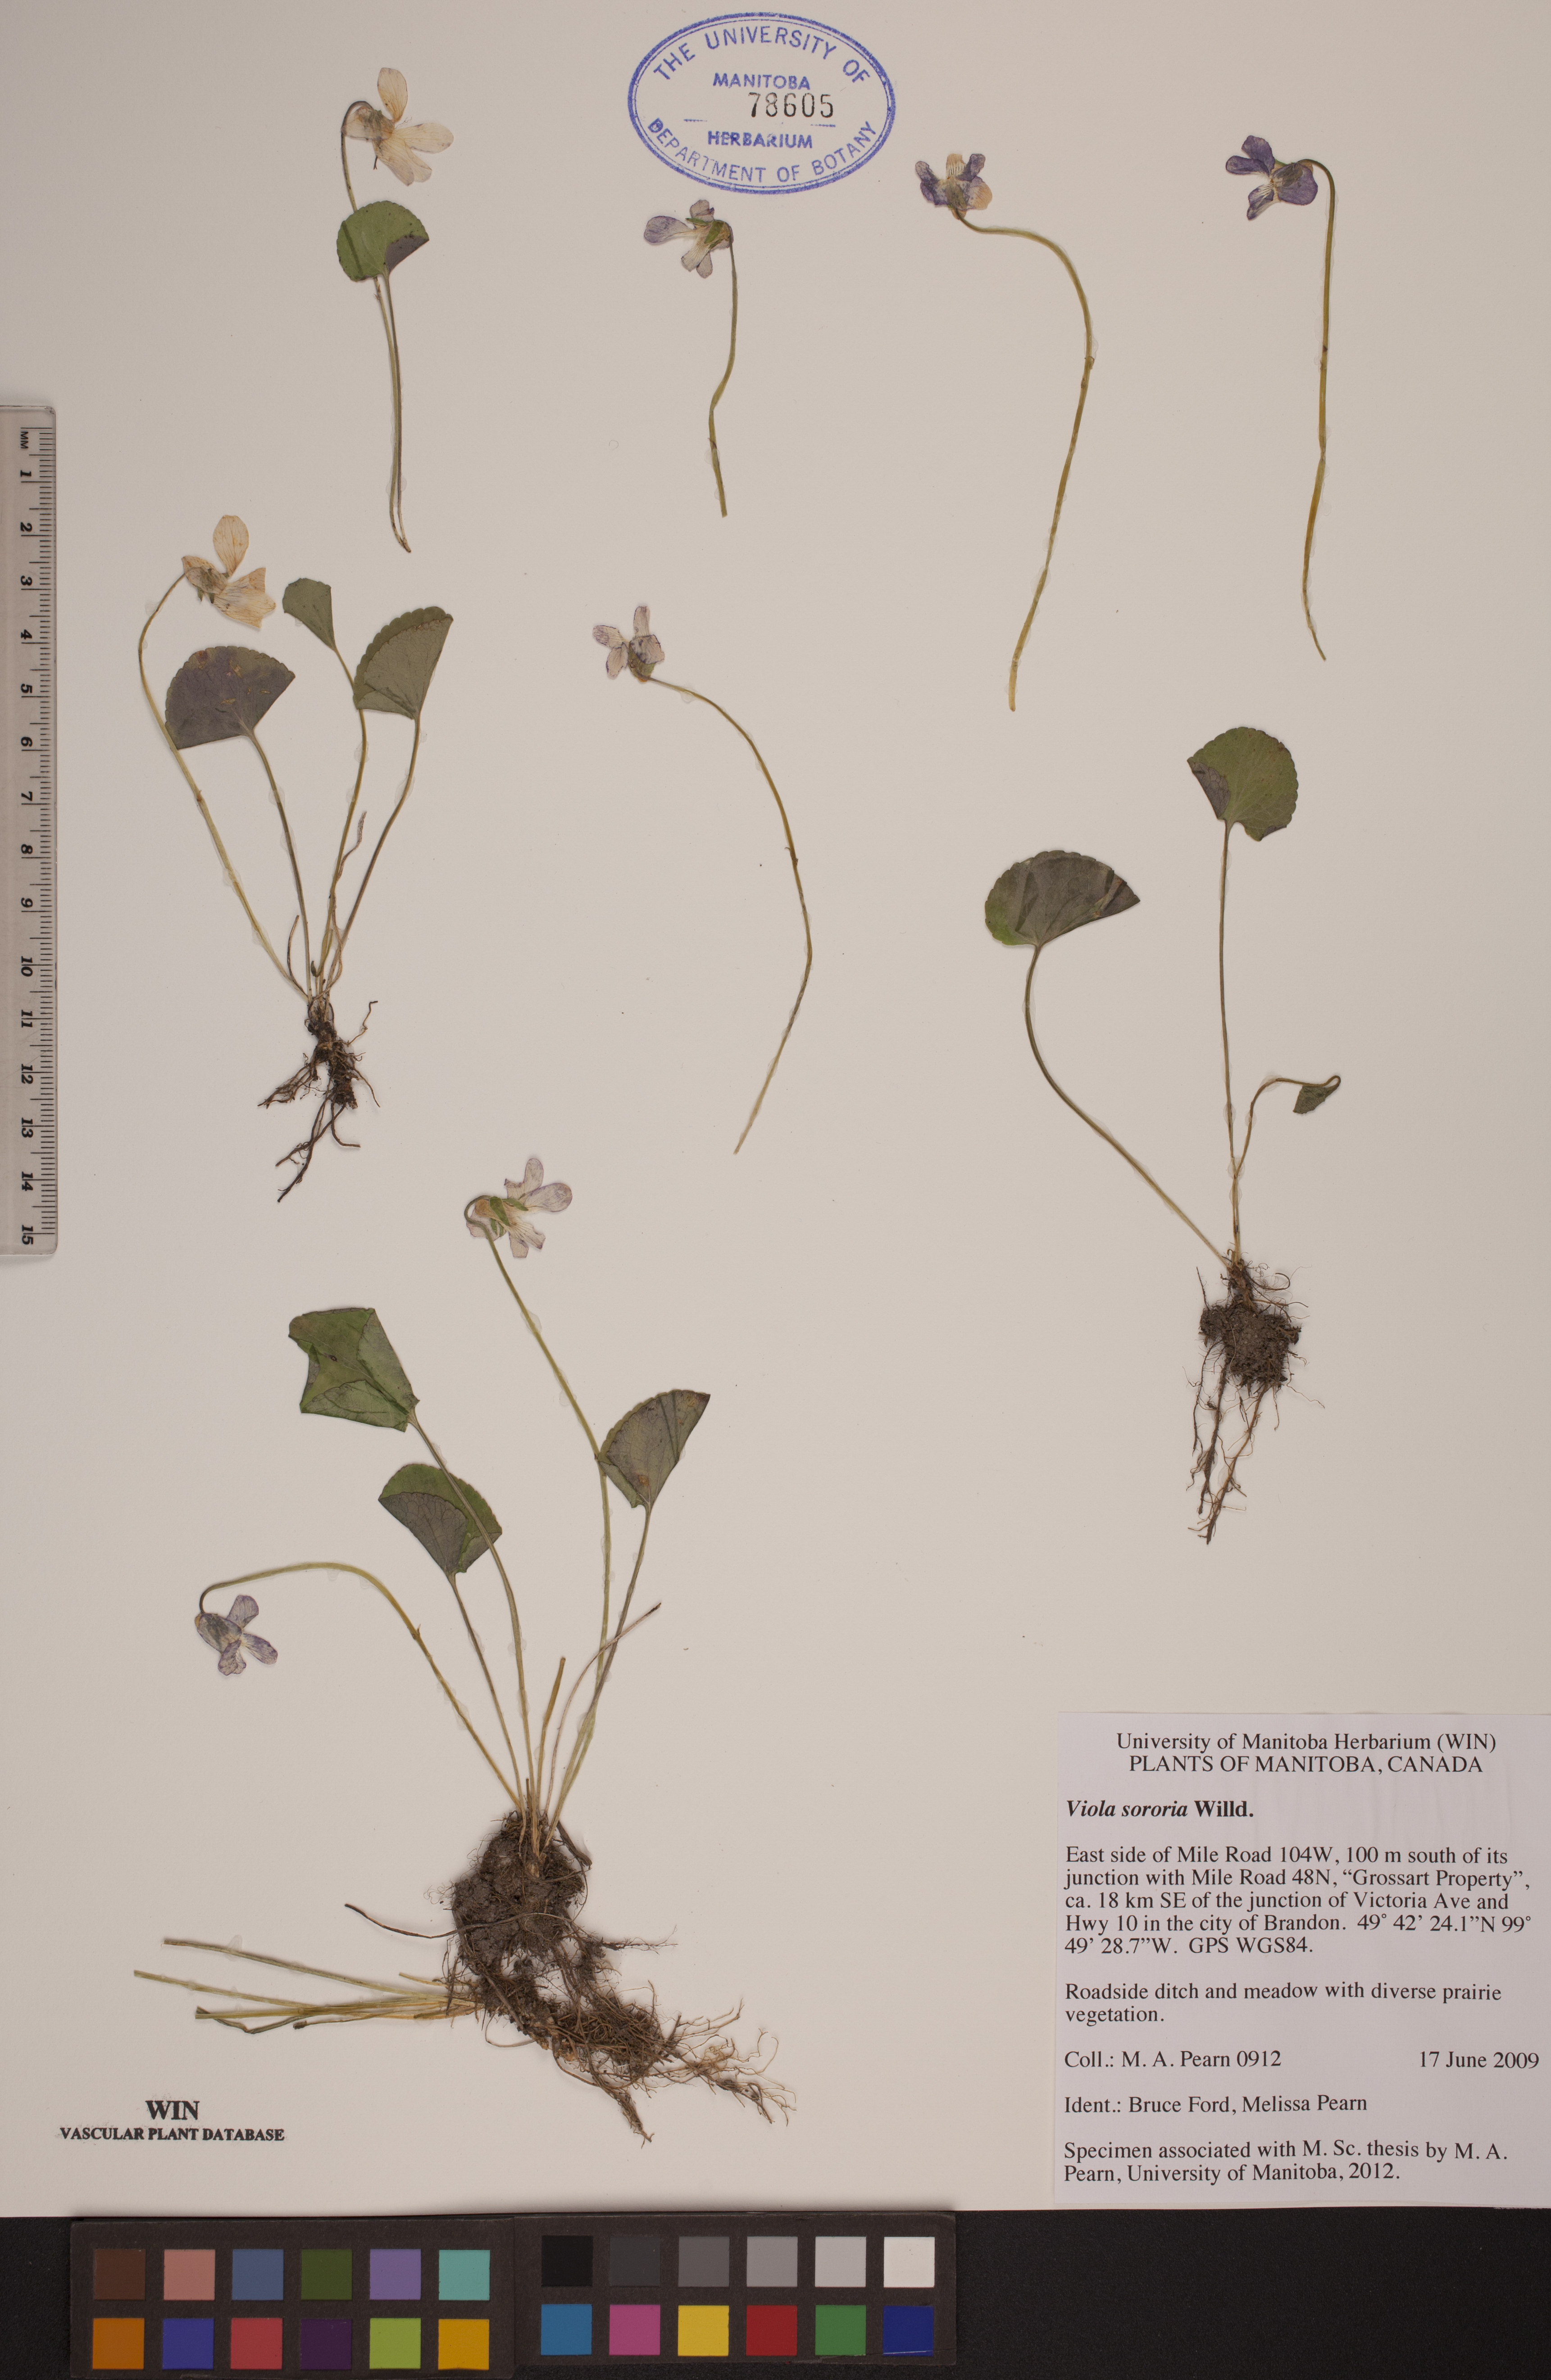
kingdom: Plantae
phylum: Tracheophyta
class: Magnoliopsida
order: Malpighiales
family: Violaceae
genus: Viola
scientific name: Viola sororia
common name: Dooryard violet
